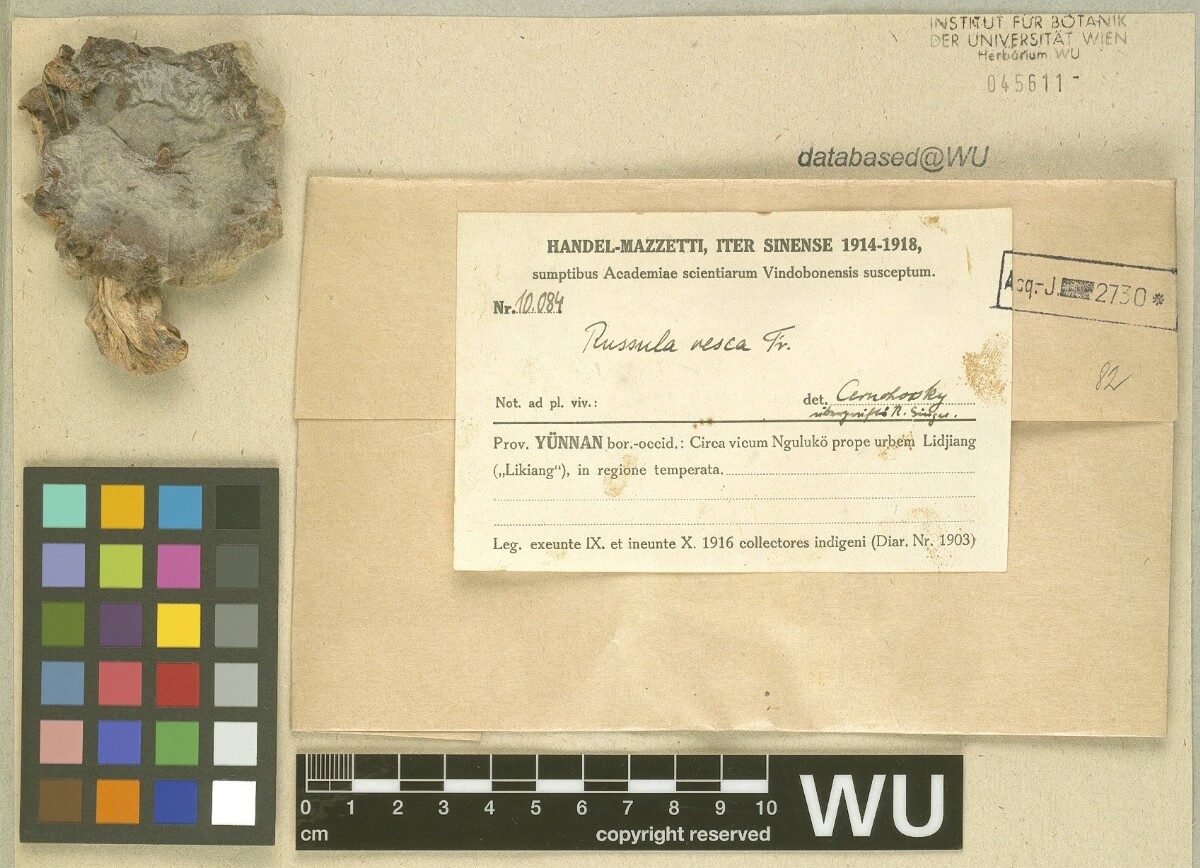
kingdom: Fungi
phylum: Basidiomycota
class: Agaricomycetes
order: Russulales
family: Russulaceae
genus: Russula
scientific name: Russula vesca
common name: Bare-toothed russula
